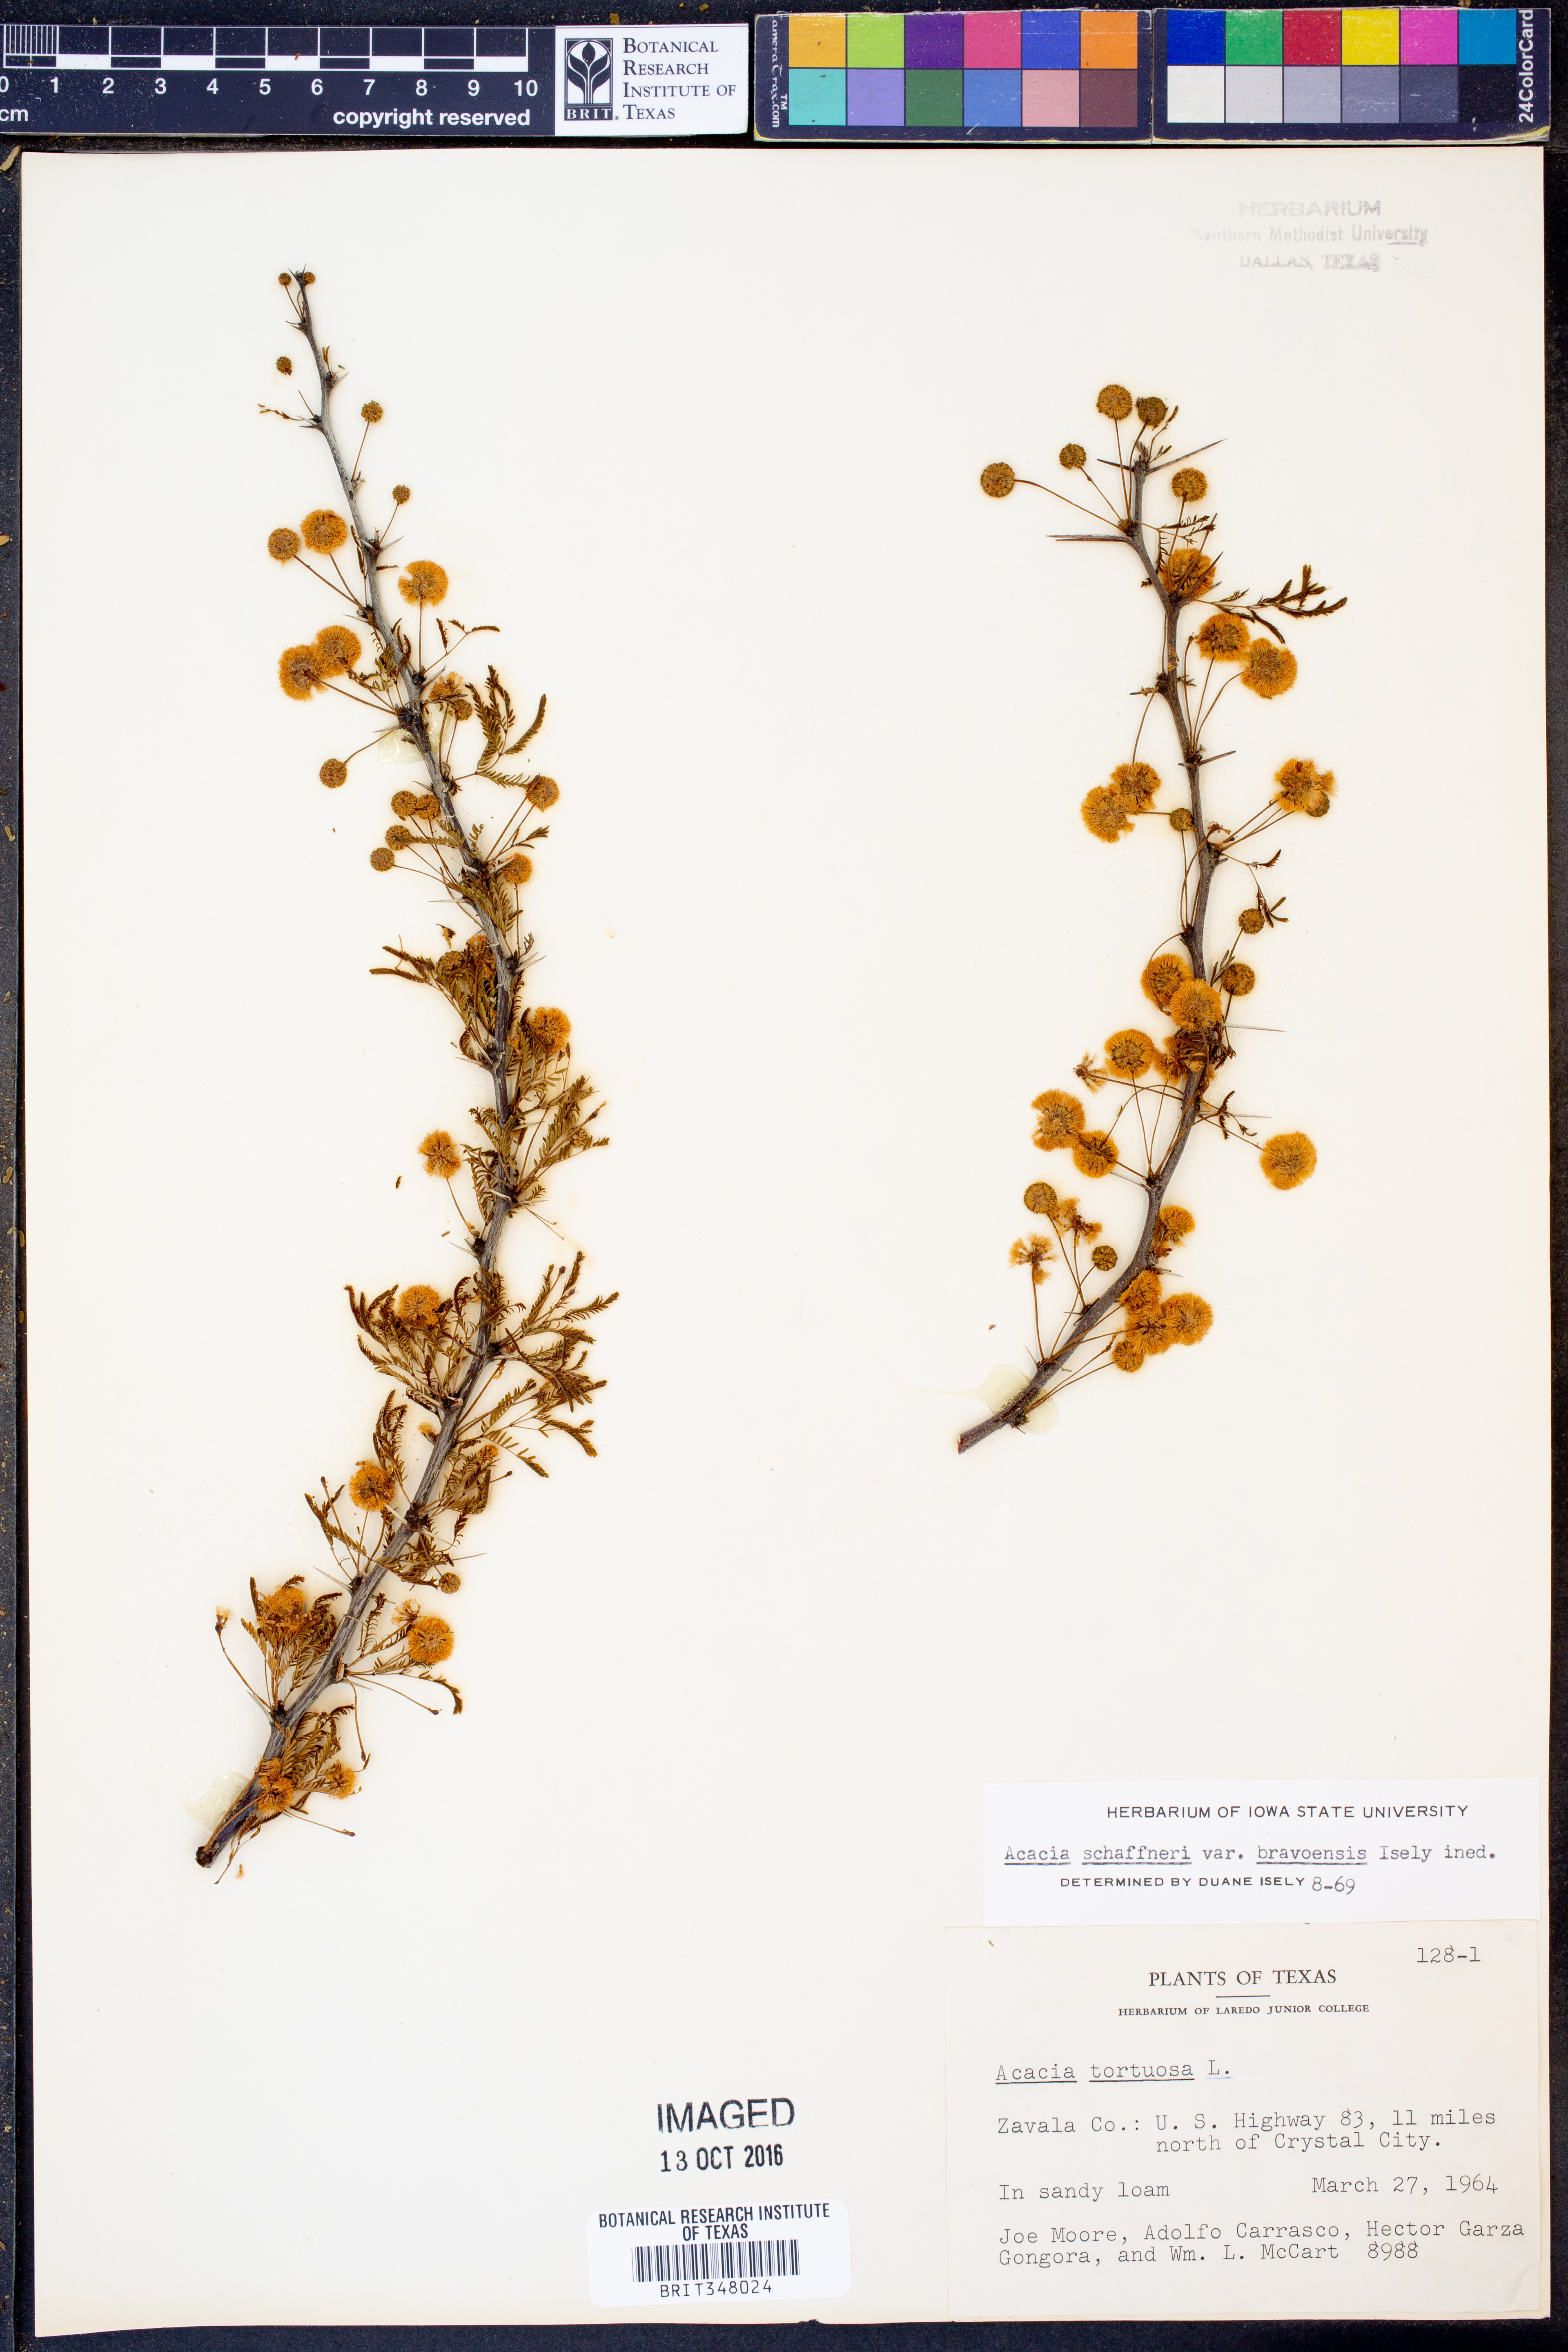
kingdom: Plantae
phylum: Tracheophyta
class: Magnoliopsida
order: Fabales
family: Fabaceae
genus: Vachellia
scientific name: Vachellia bravoensis
